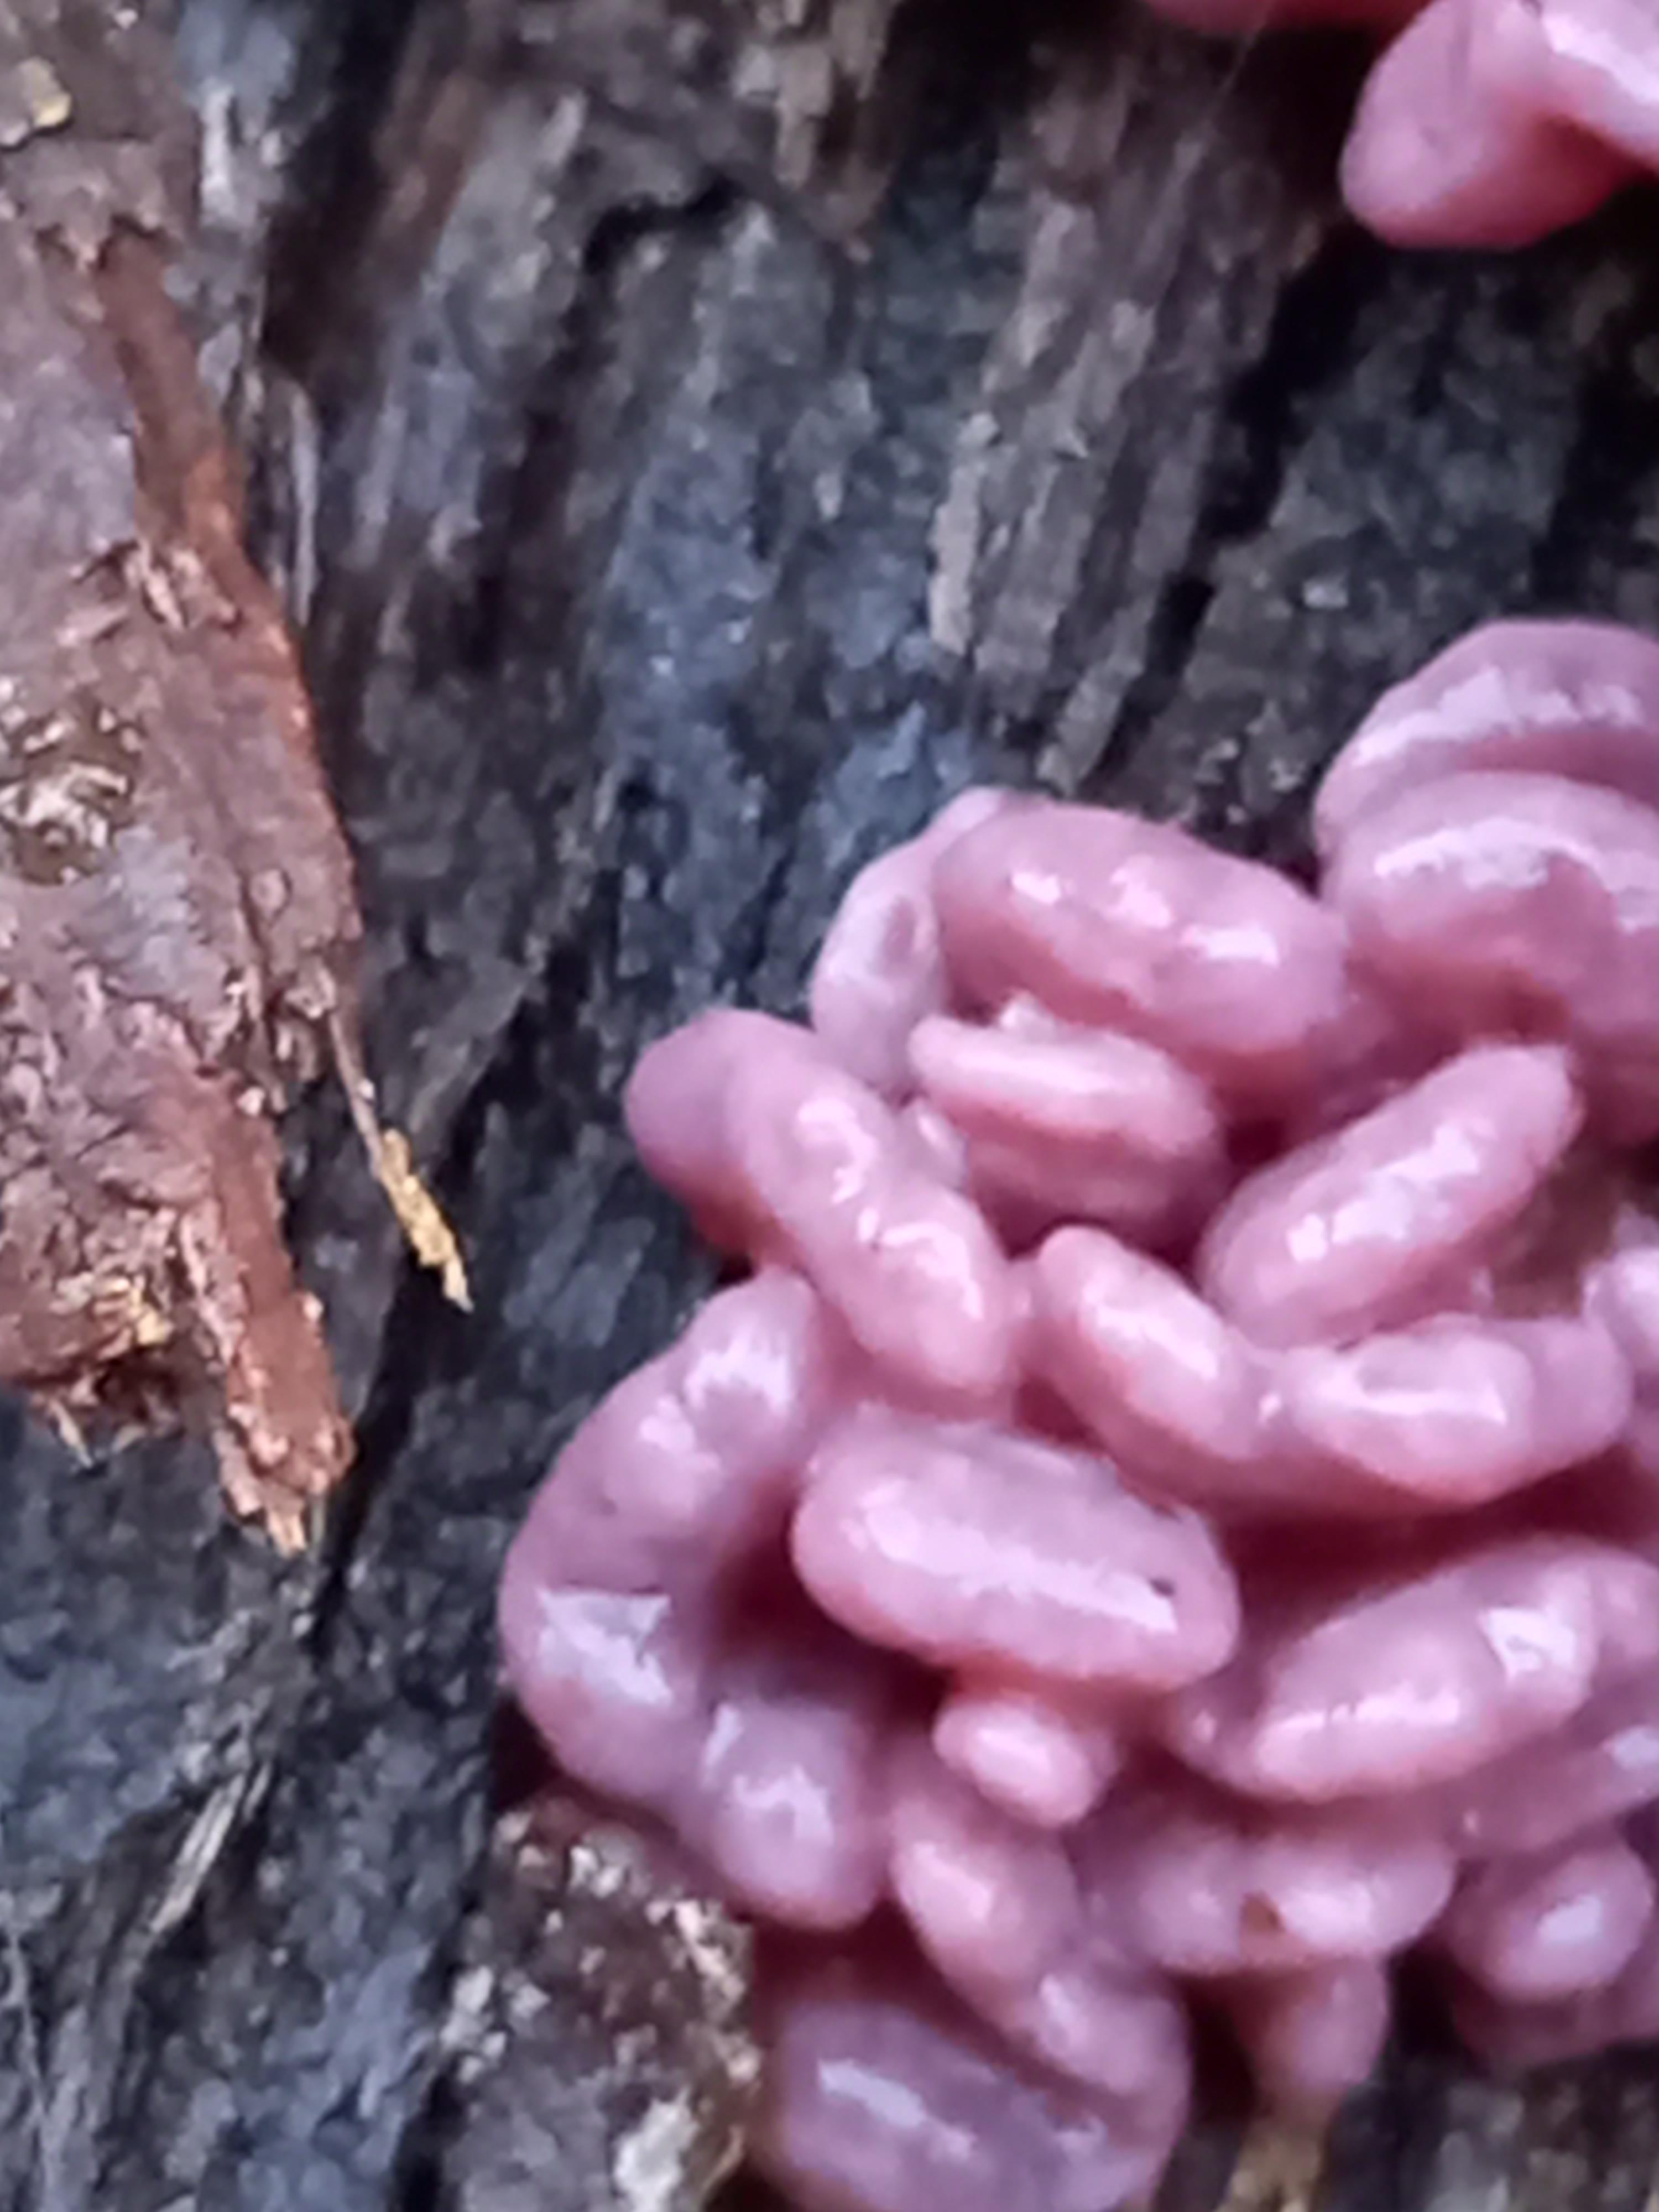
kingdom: Fungi
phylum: Ascomycota
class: Leotiomycetes
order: Helotiales
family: Gelatinodiscaceae
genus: Ascocoryne
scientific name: Ascocoryne sarcoides
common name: rødlilla sejskive
